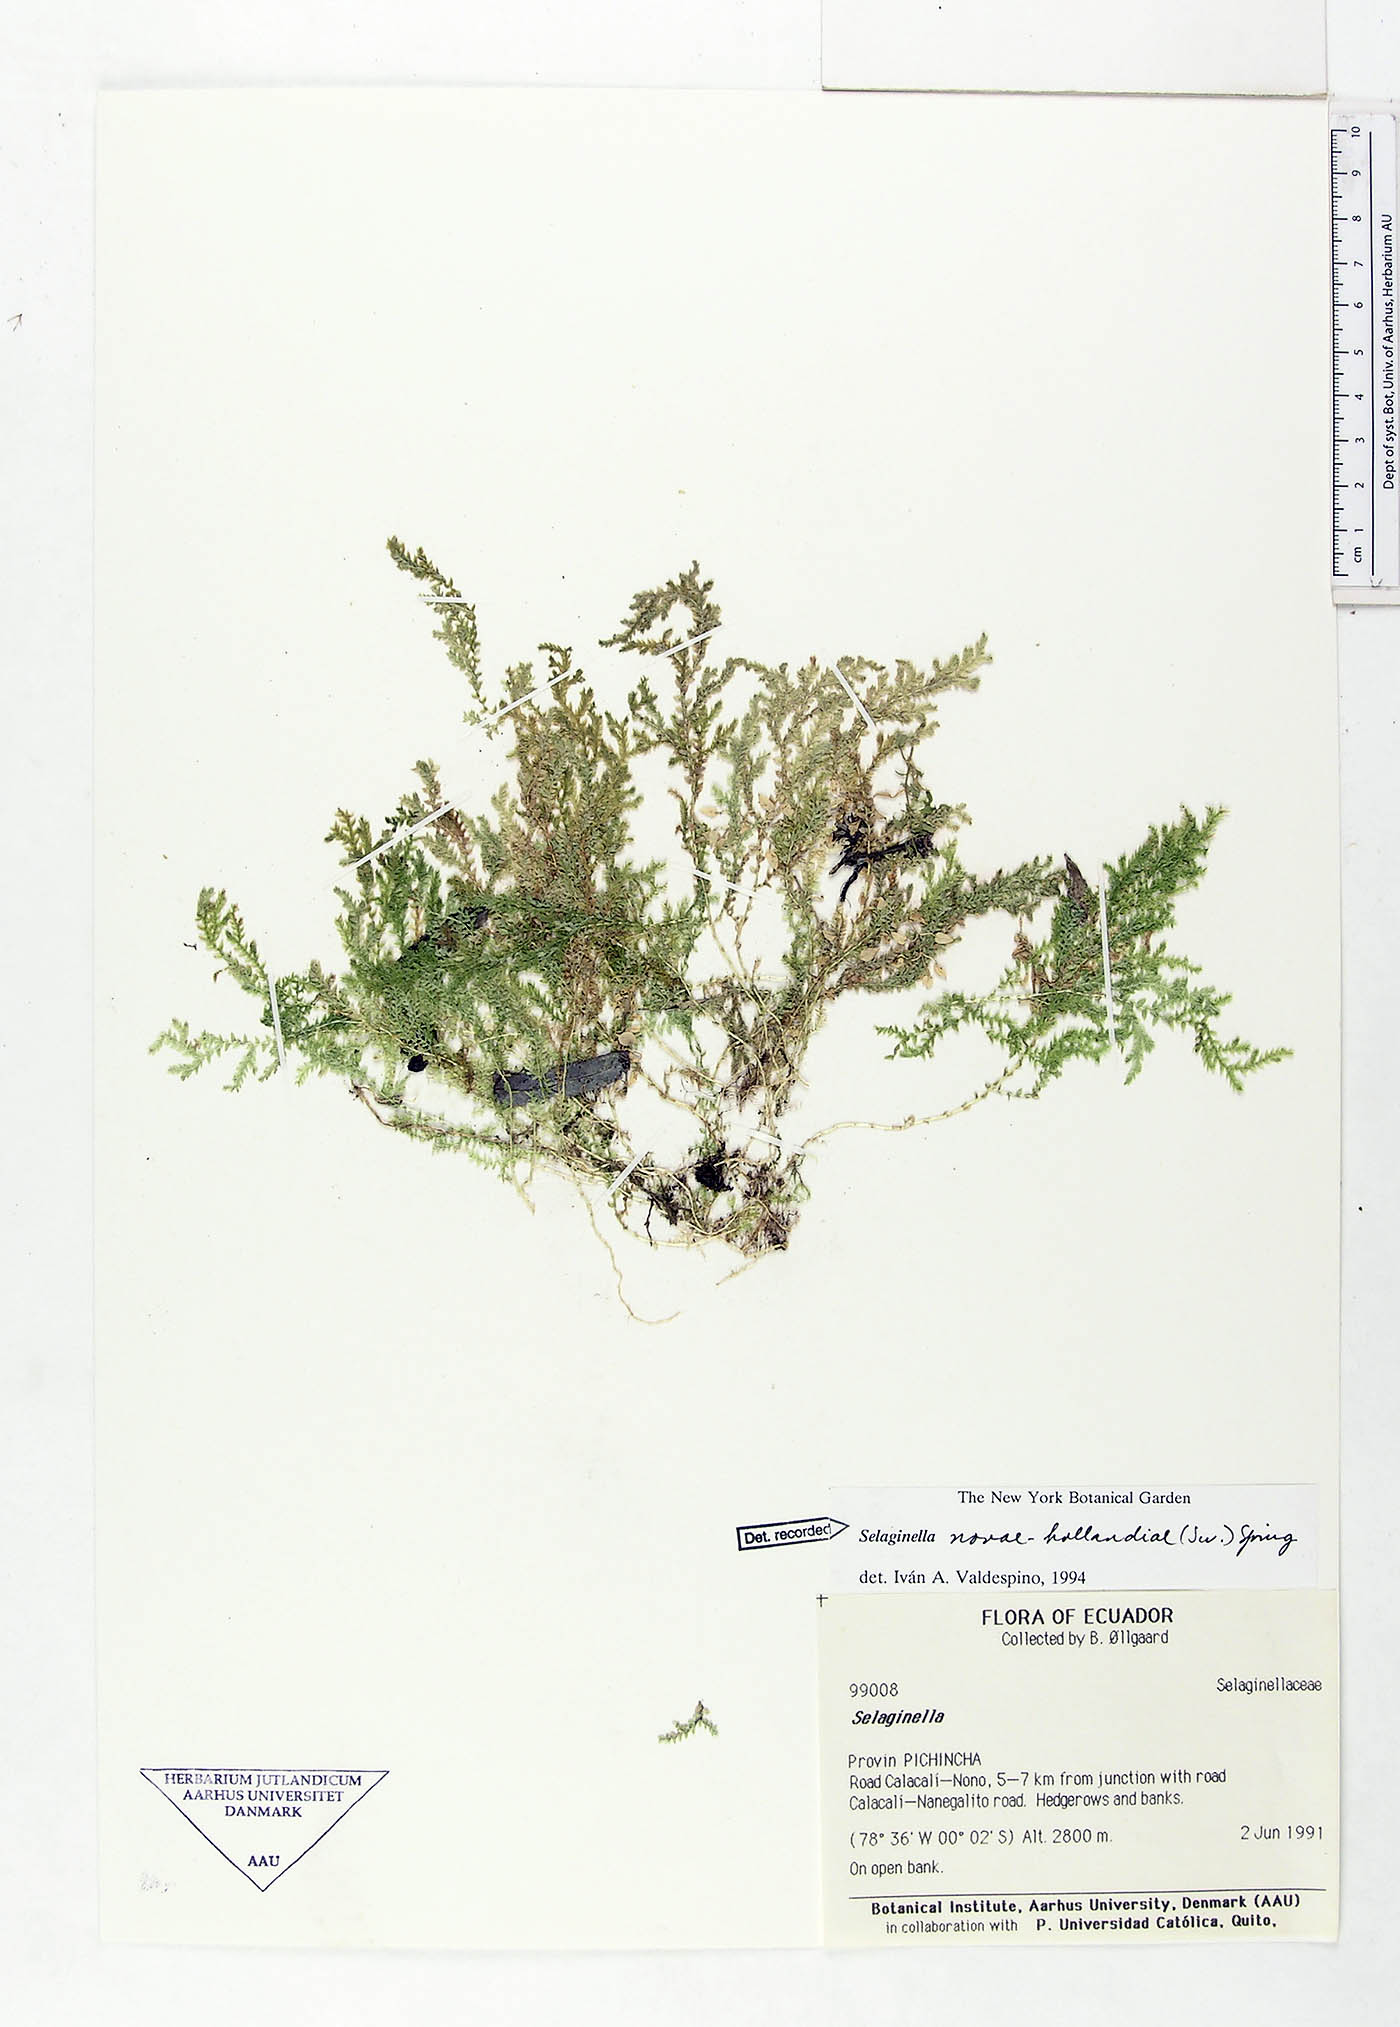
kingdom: Plantae
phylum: Tracheophyta
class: Lycopodiopsida
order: Selaginellales
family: Selaginellaceae
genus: Selaginella
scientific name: Selaginella novae-hollandiae
